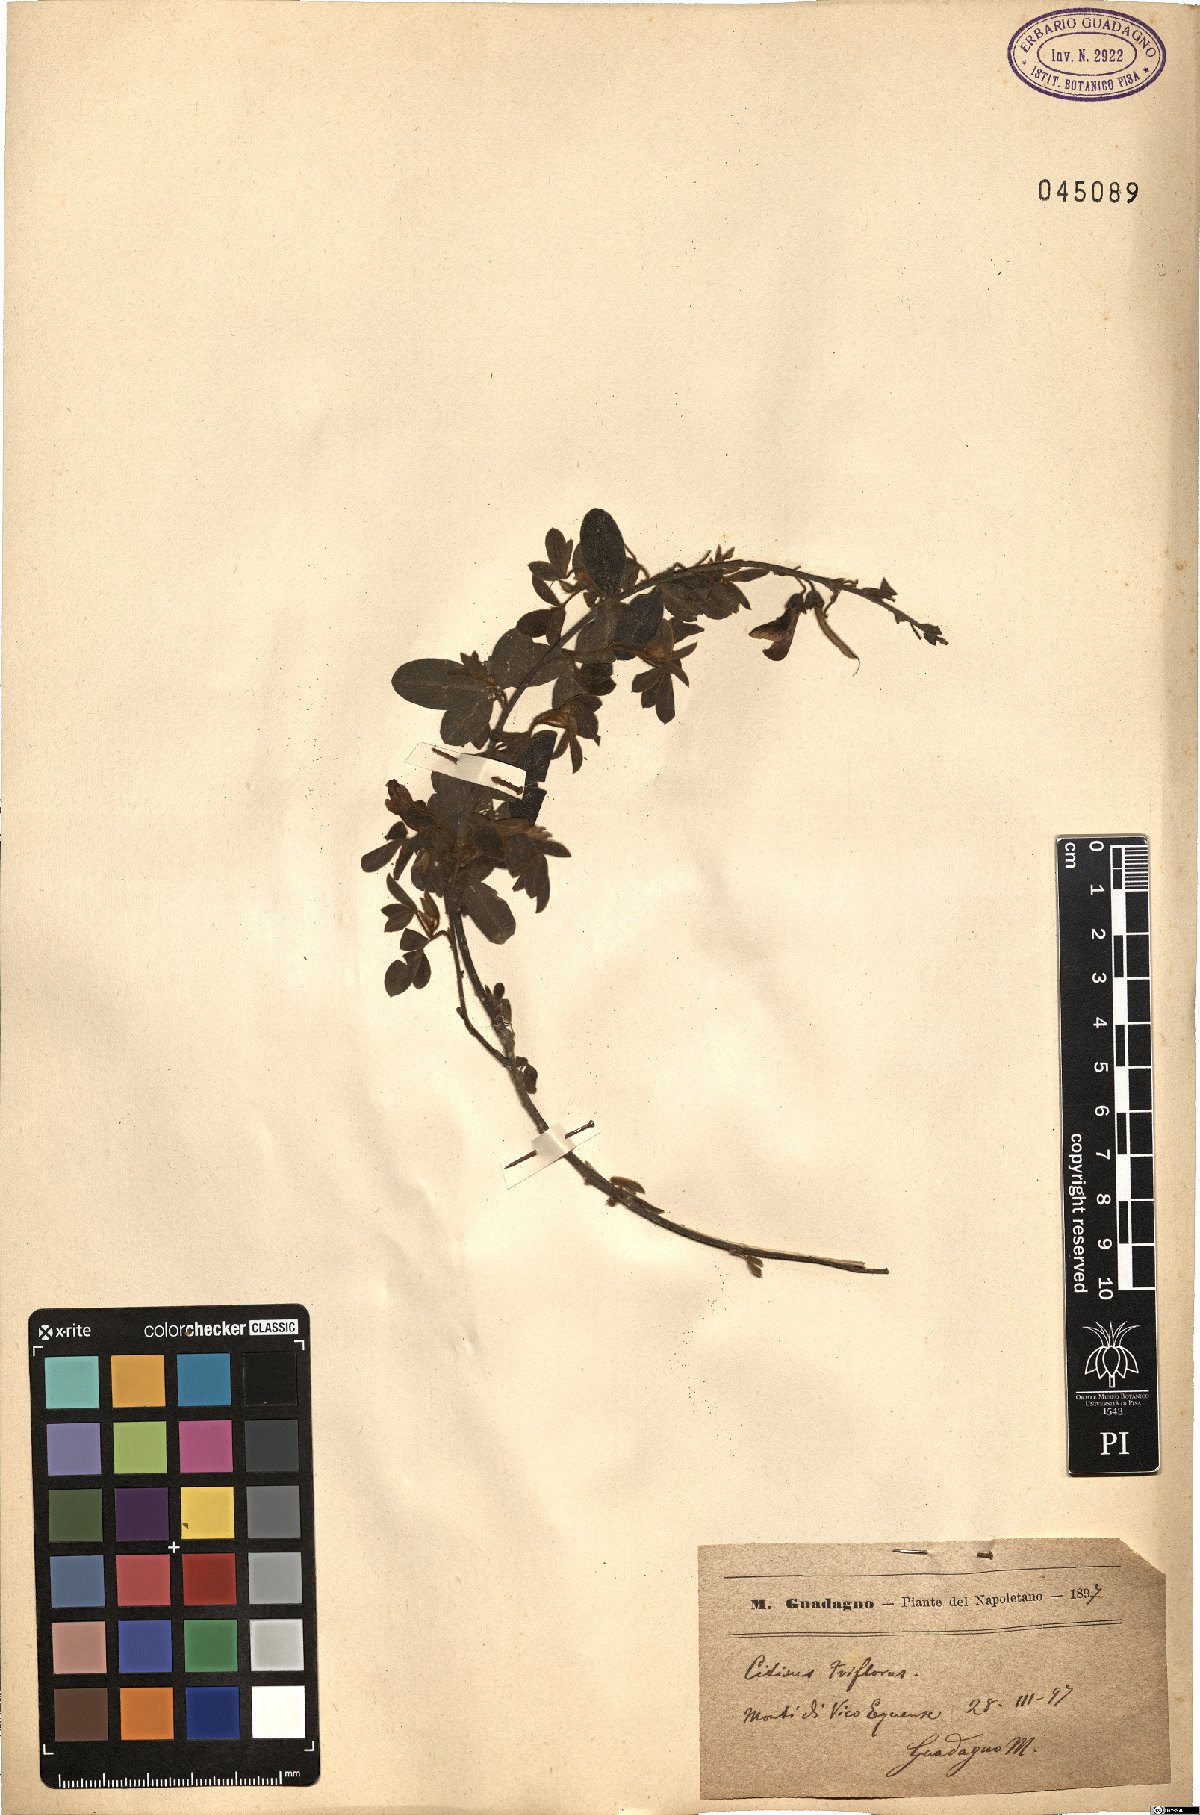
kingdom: Plantae
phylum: Tracheophyta
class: Magnoliopsida
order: Fabales
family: Fabaceae
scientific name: Fabaceae
